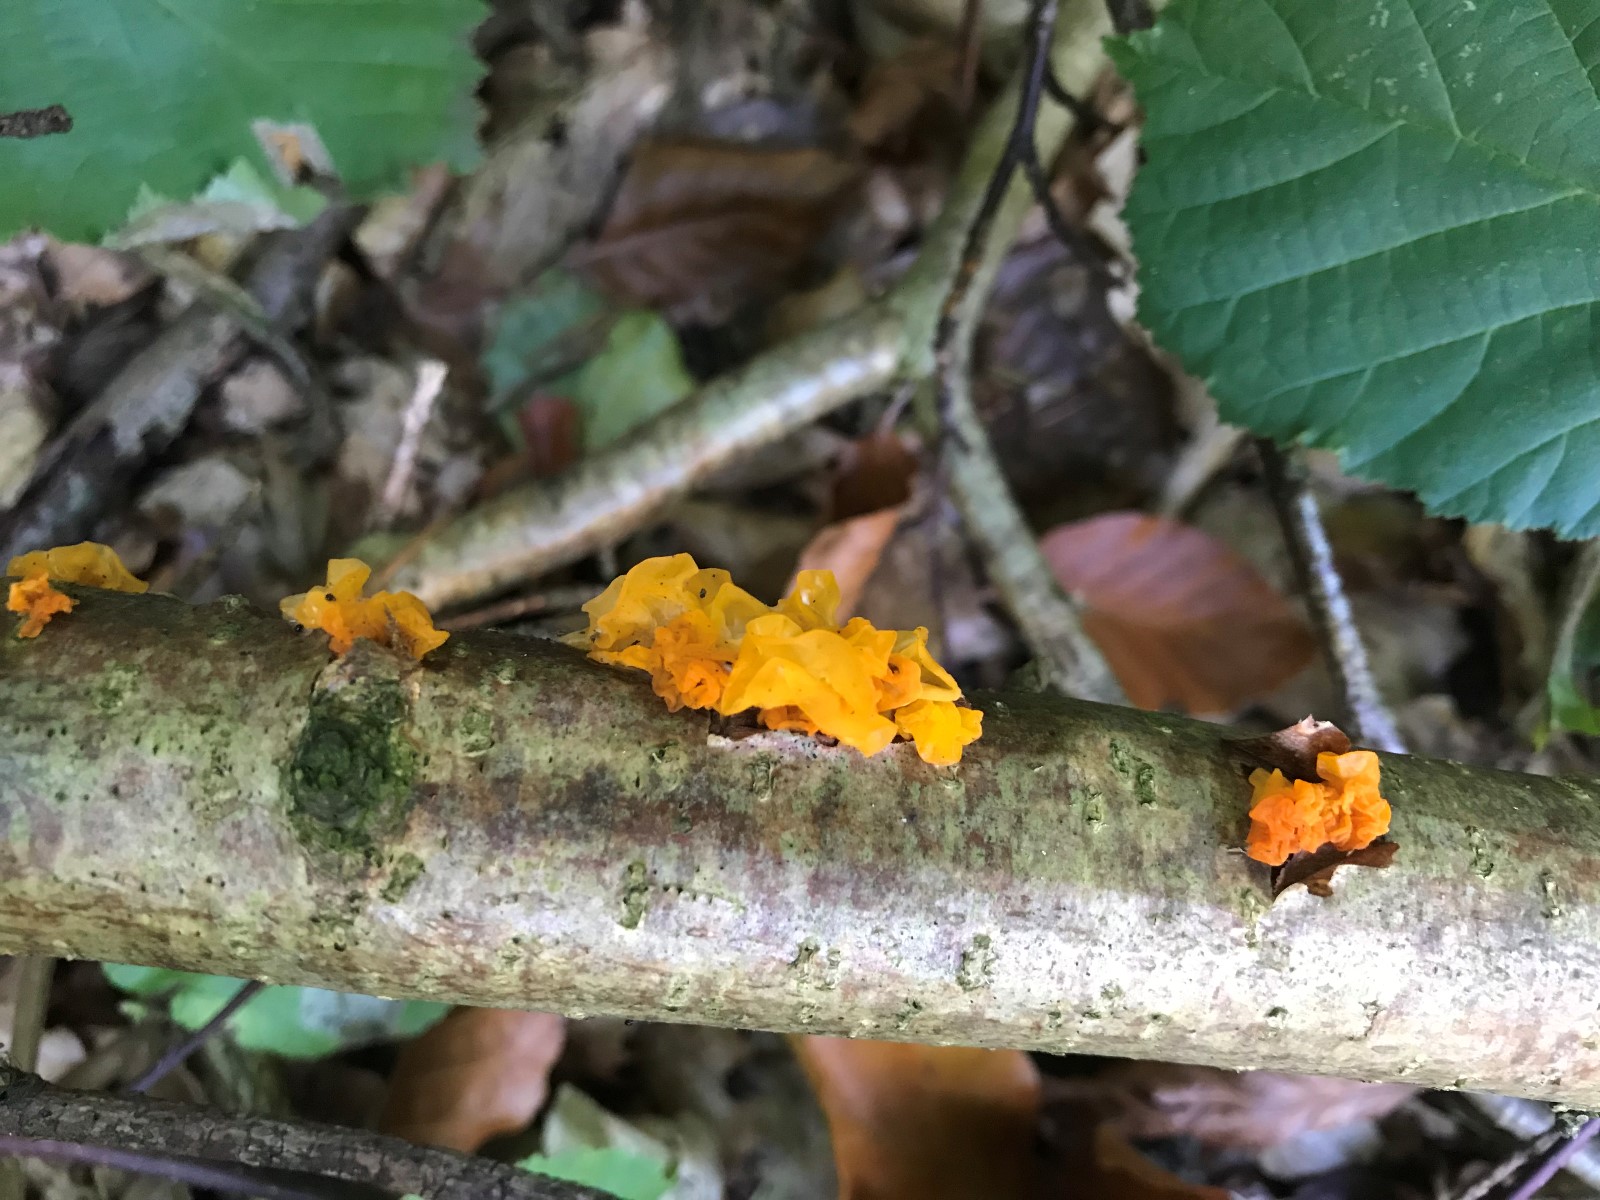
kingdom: Fungi
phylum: Basidiomycota
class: Tremellomycetes
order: Tremellales
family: Tremellaceae
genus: Tremella
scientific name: Tremella mesenterica
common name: gul bævresvamp
